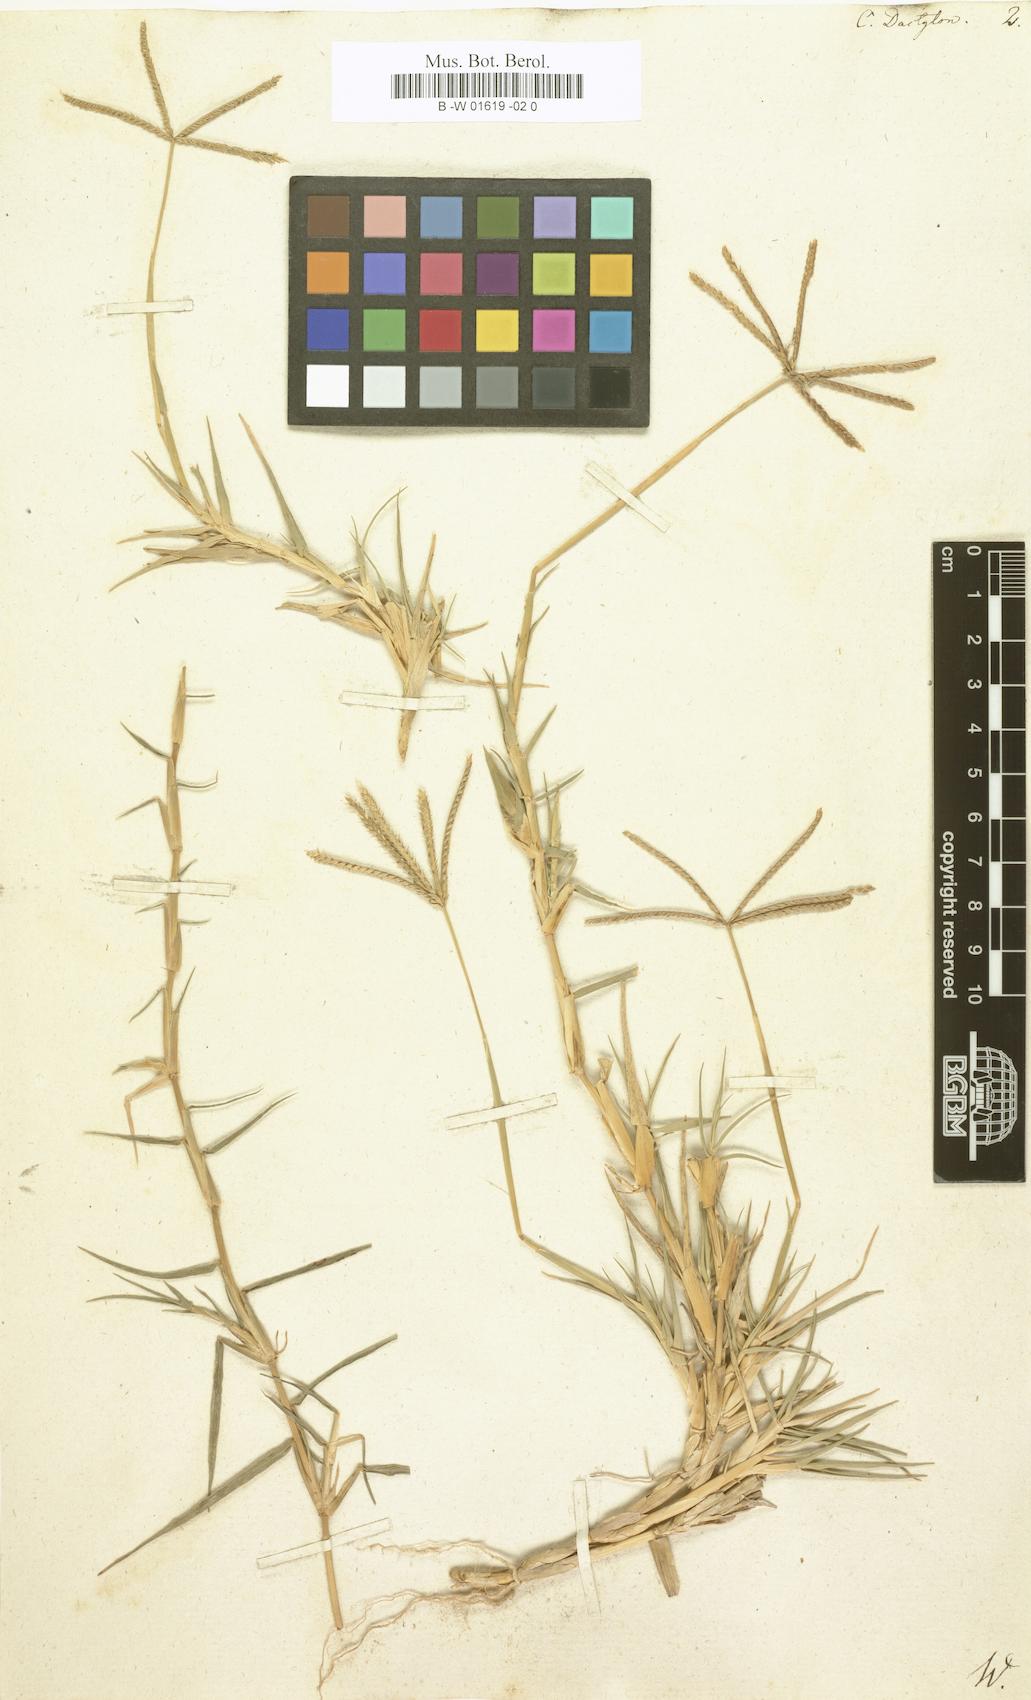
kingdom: Plantae
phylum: Tracheophyta
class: Liliopsida
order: Poales
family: Poaceae
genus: Cynodon
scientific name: Cynodon dactylon
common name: Bermuda grass
